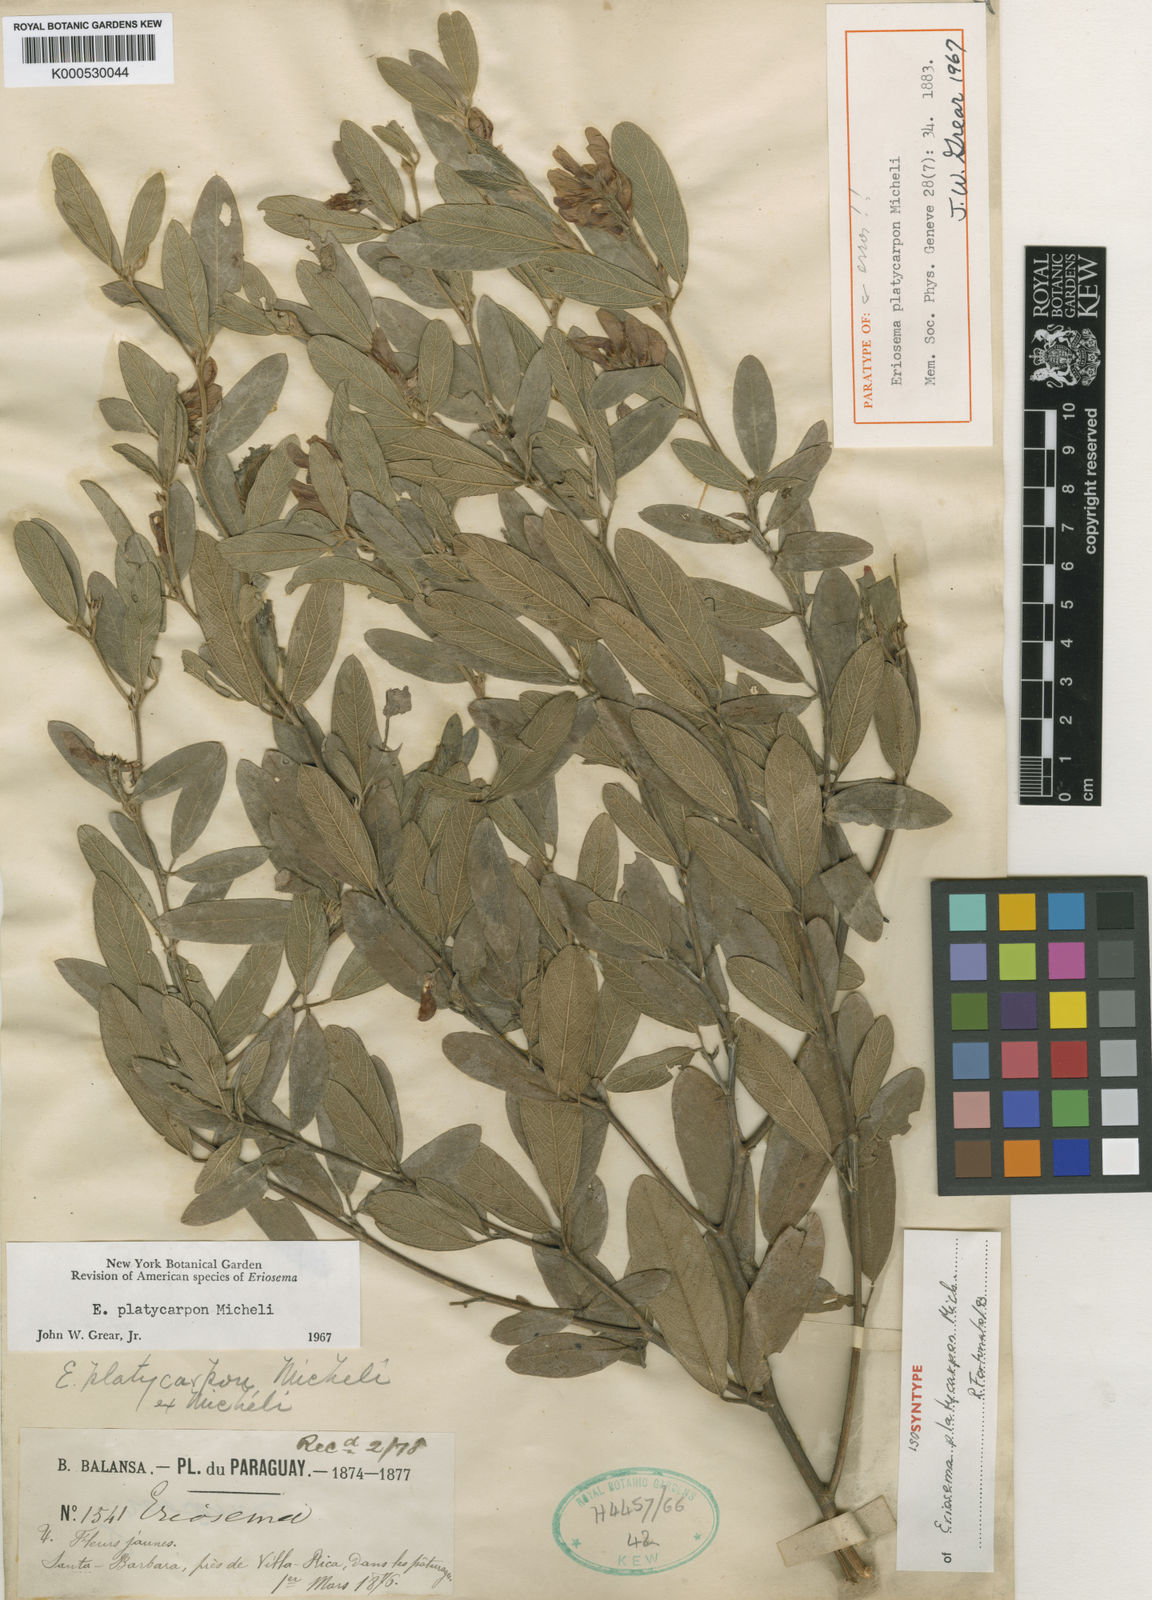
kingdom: Plantae
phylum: Tracheophyta
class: Magnoliopsida
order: Fabales
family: Fabaceae
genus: Eriosema
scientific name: Eriosema platycarpon
